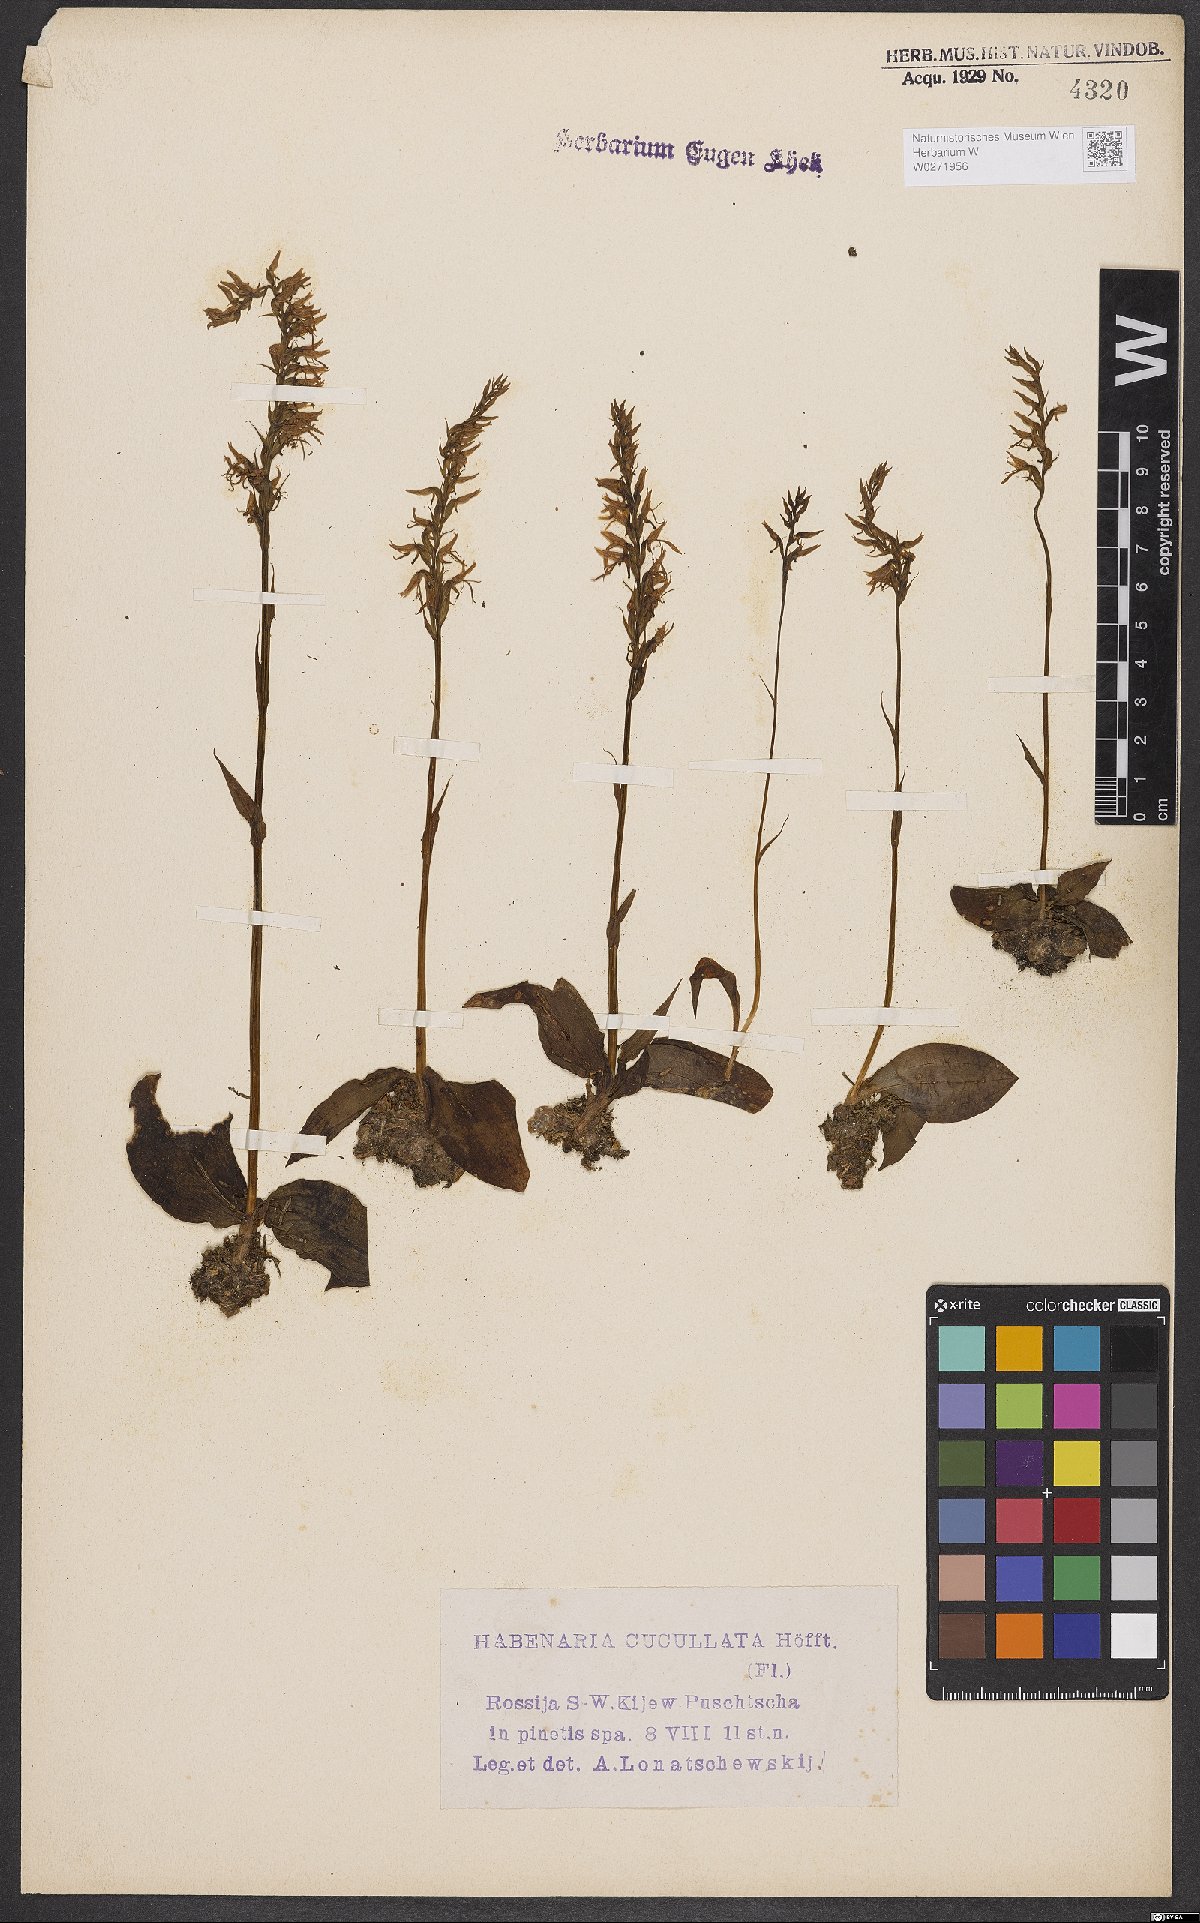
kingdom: Plantae
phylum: Tracheophyta
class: Liliopsida
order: Asparagales
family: Orchidaceae
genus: Hemipilia
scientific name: Hemipilia cucullata
